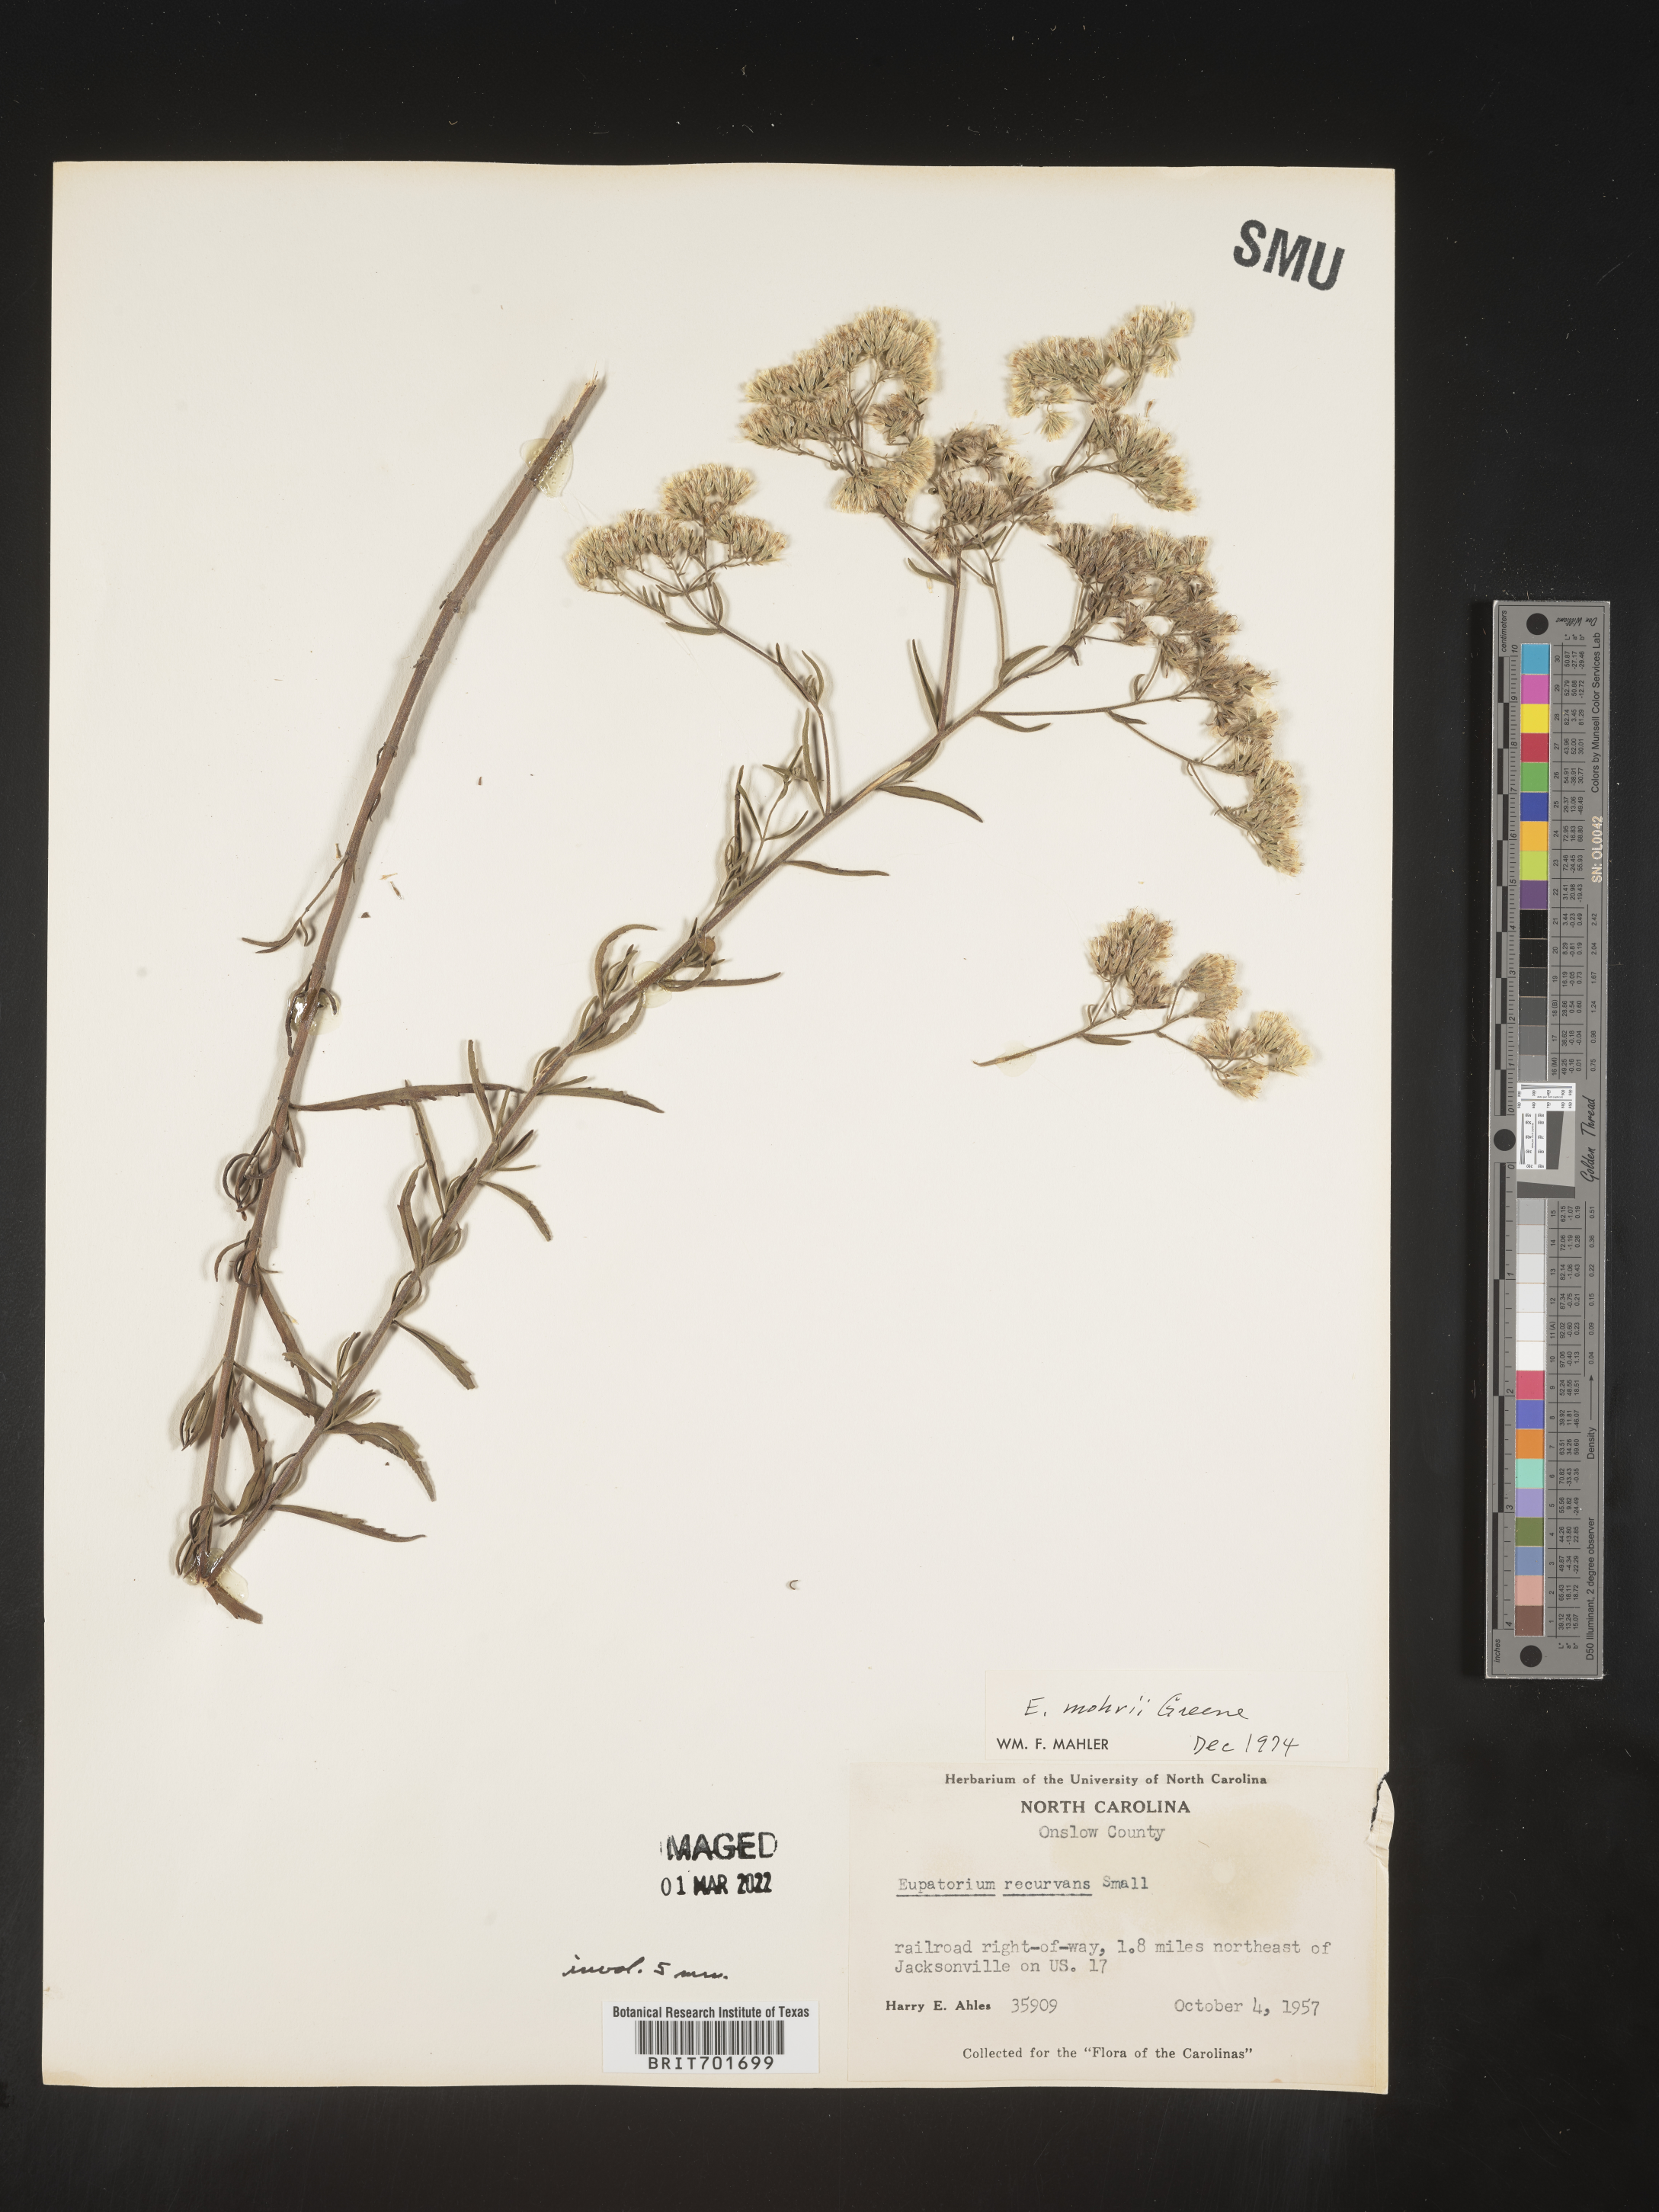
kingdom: Plantae
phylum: Tracheophyta
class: Magnoliopsida
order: Asterales
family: Asteraceae
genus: Eupatorium
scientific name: Eupatorium mohrii
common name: Mohr's thoroughwort
